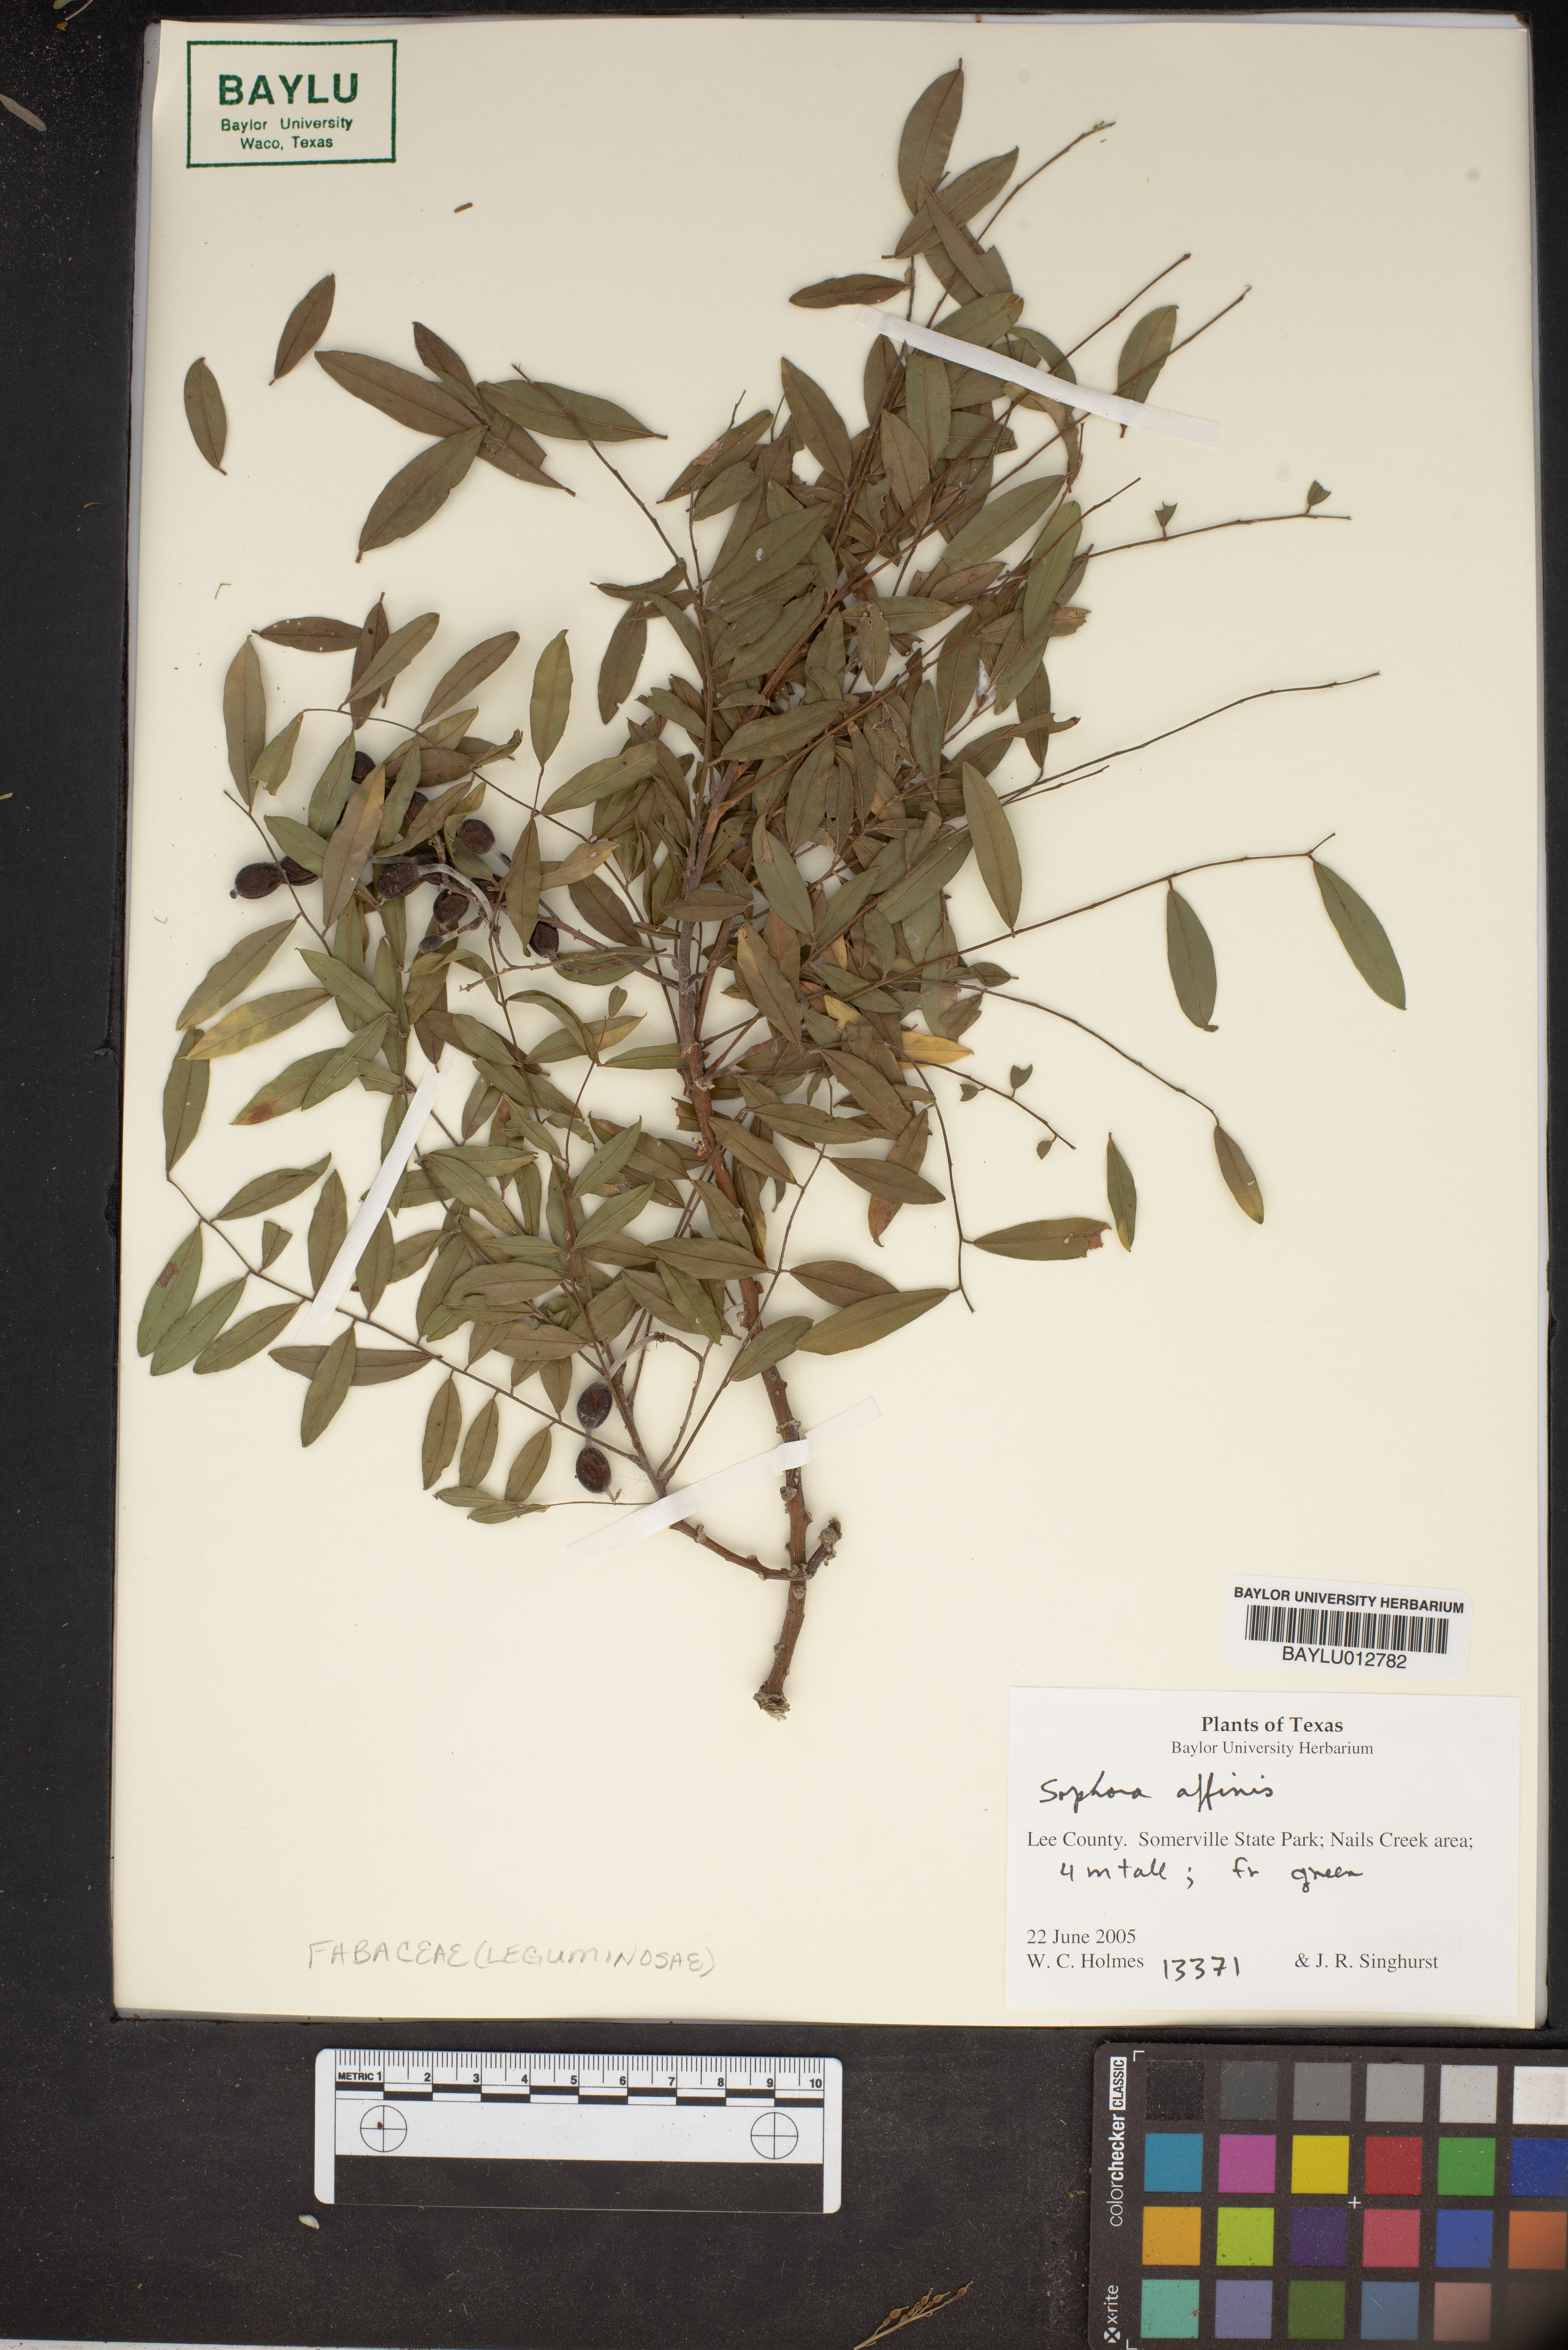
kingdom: Plantae
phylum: Tracheophyta
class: Magnoliopsida
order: Fabales
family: Fabaceae
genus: Styphnolobium
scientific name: Styphnolobium affine
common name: Texas sophora
